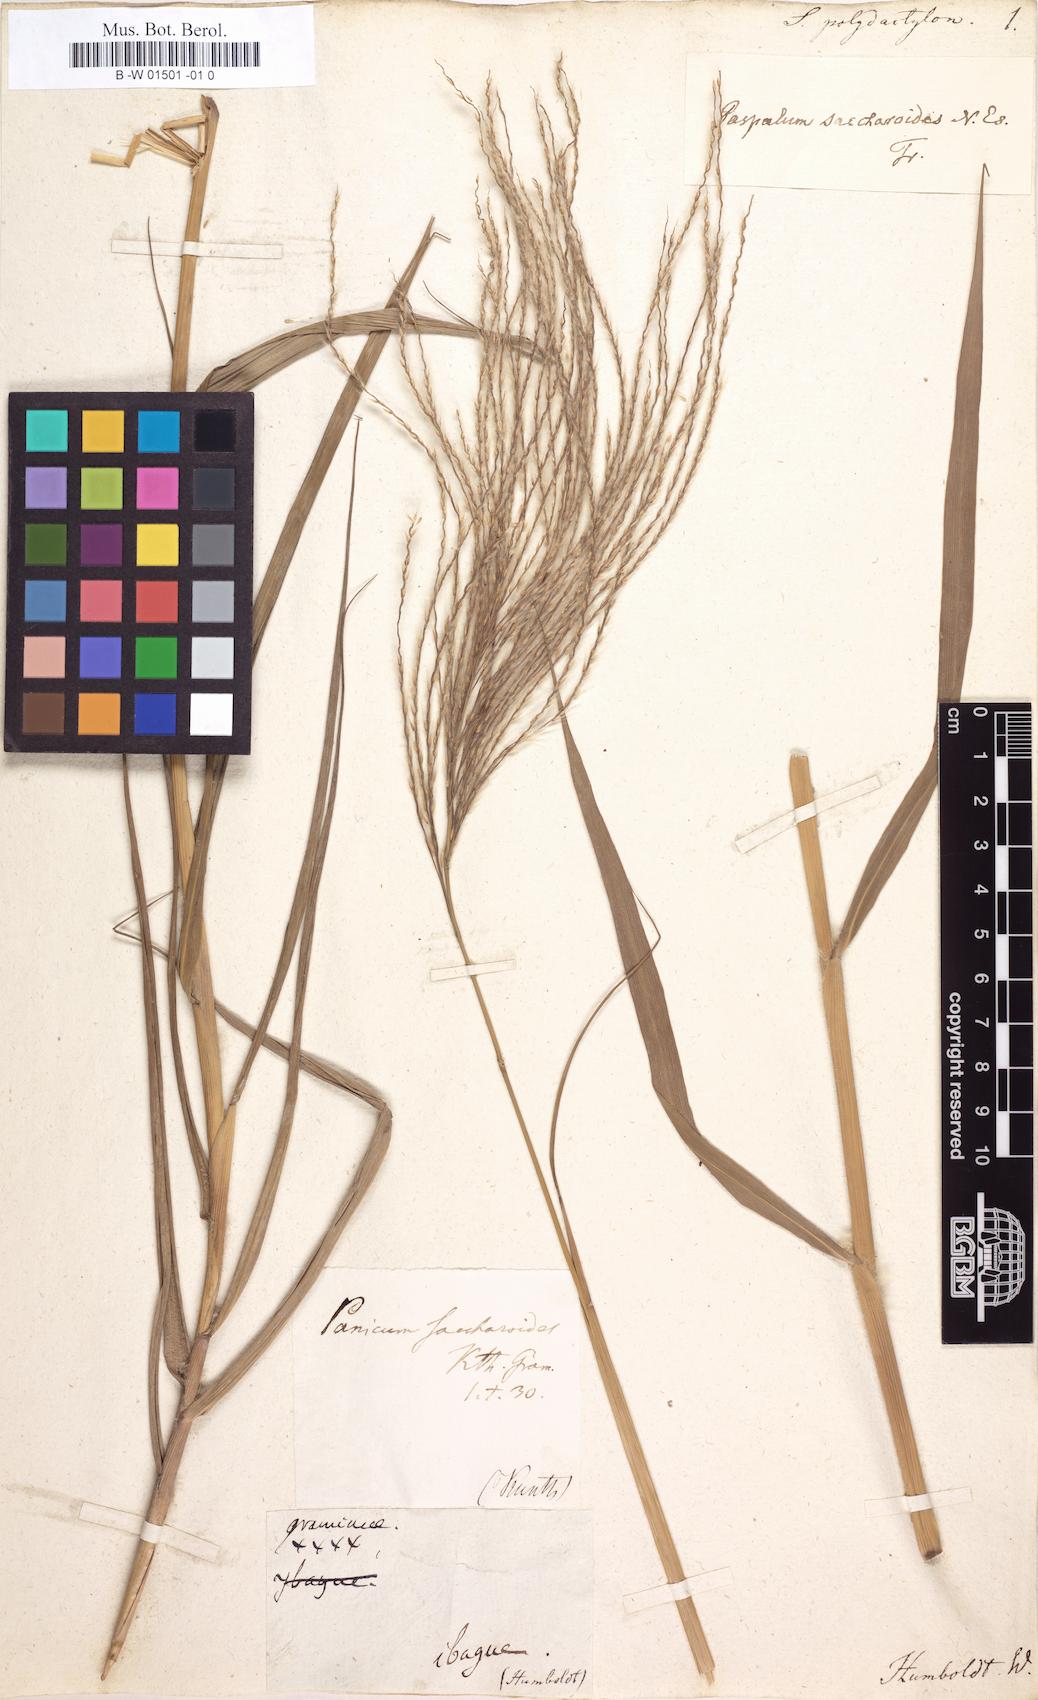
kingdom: Plantae
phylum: Tracheophyta
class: Liliopsida
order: Poales
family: Poaceae
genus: Stapfochloa
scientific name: Stapfochloa elata
